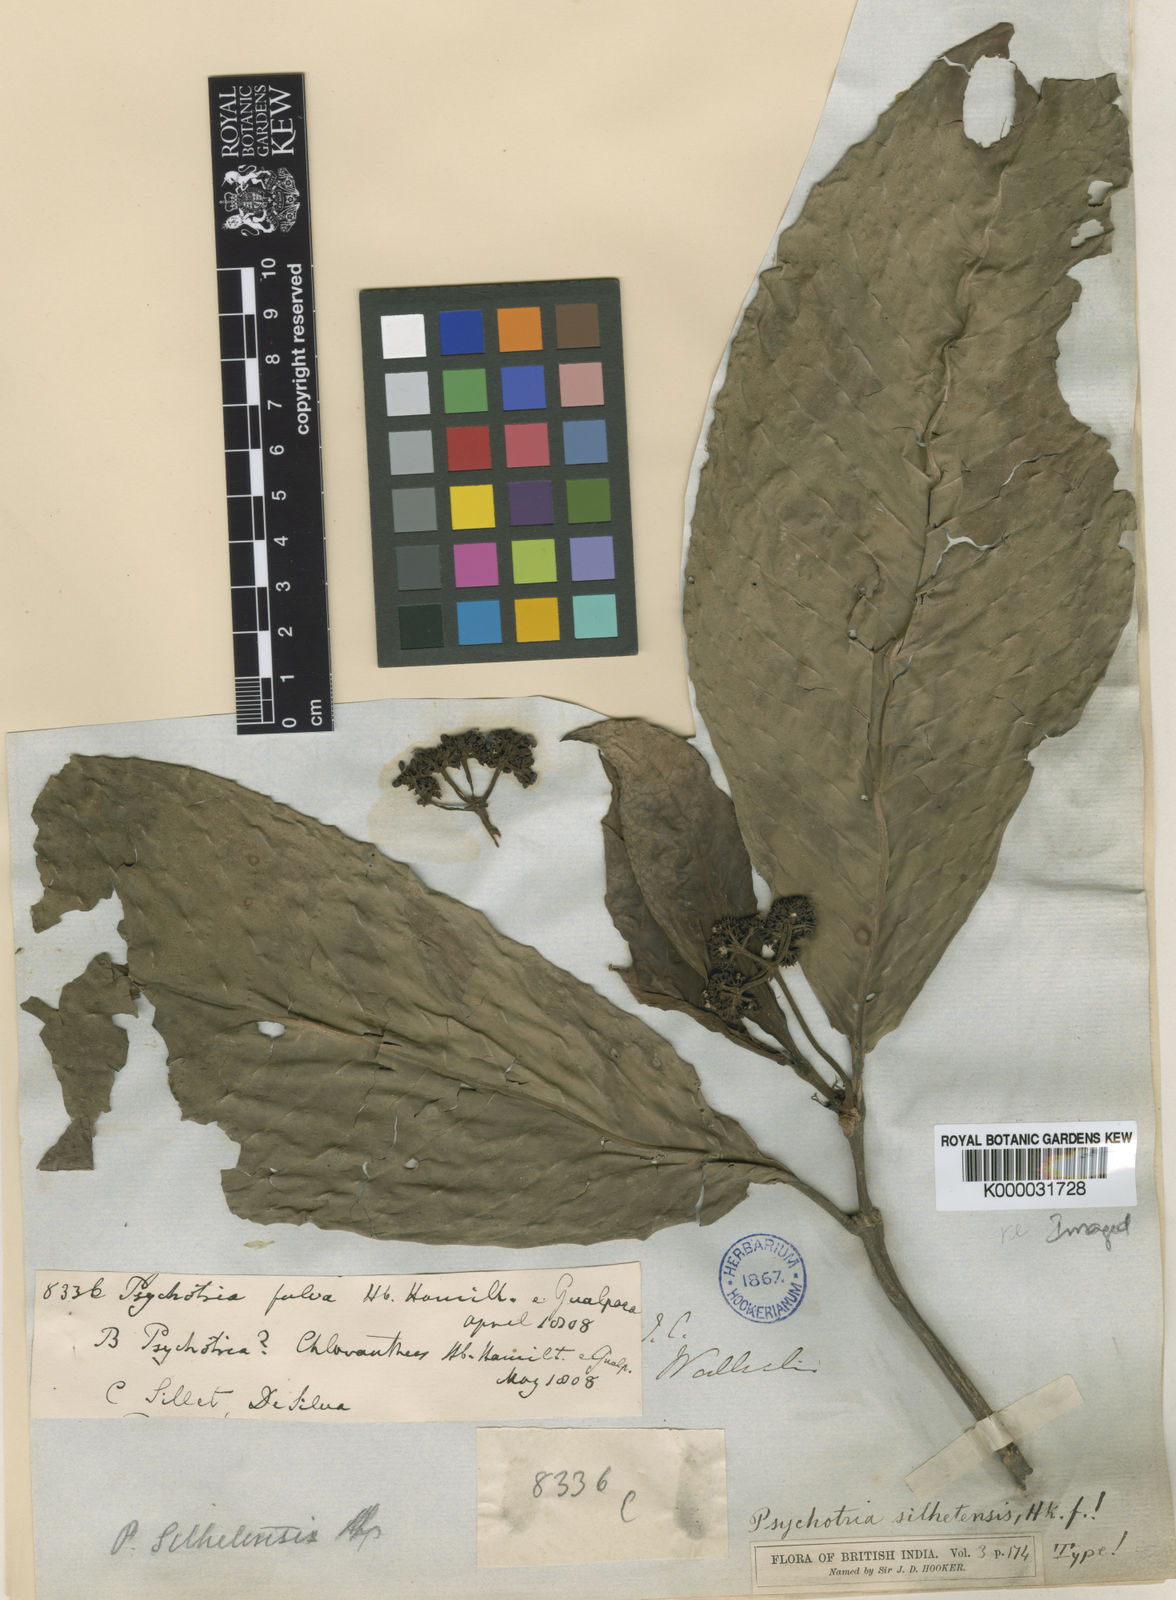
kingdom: Plantae
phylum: Tracheophyta
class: Magnoliopsida
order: Gentianales
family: Rubiaceae
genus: Psychotria
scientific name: Psychotria silhetensis
